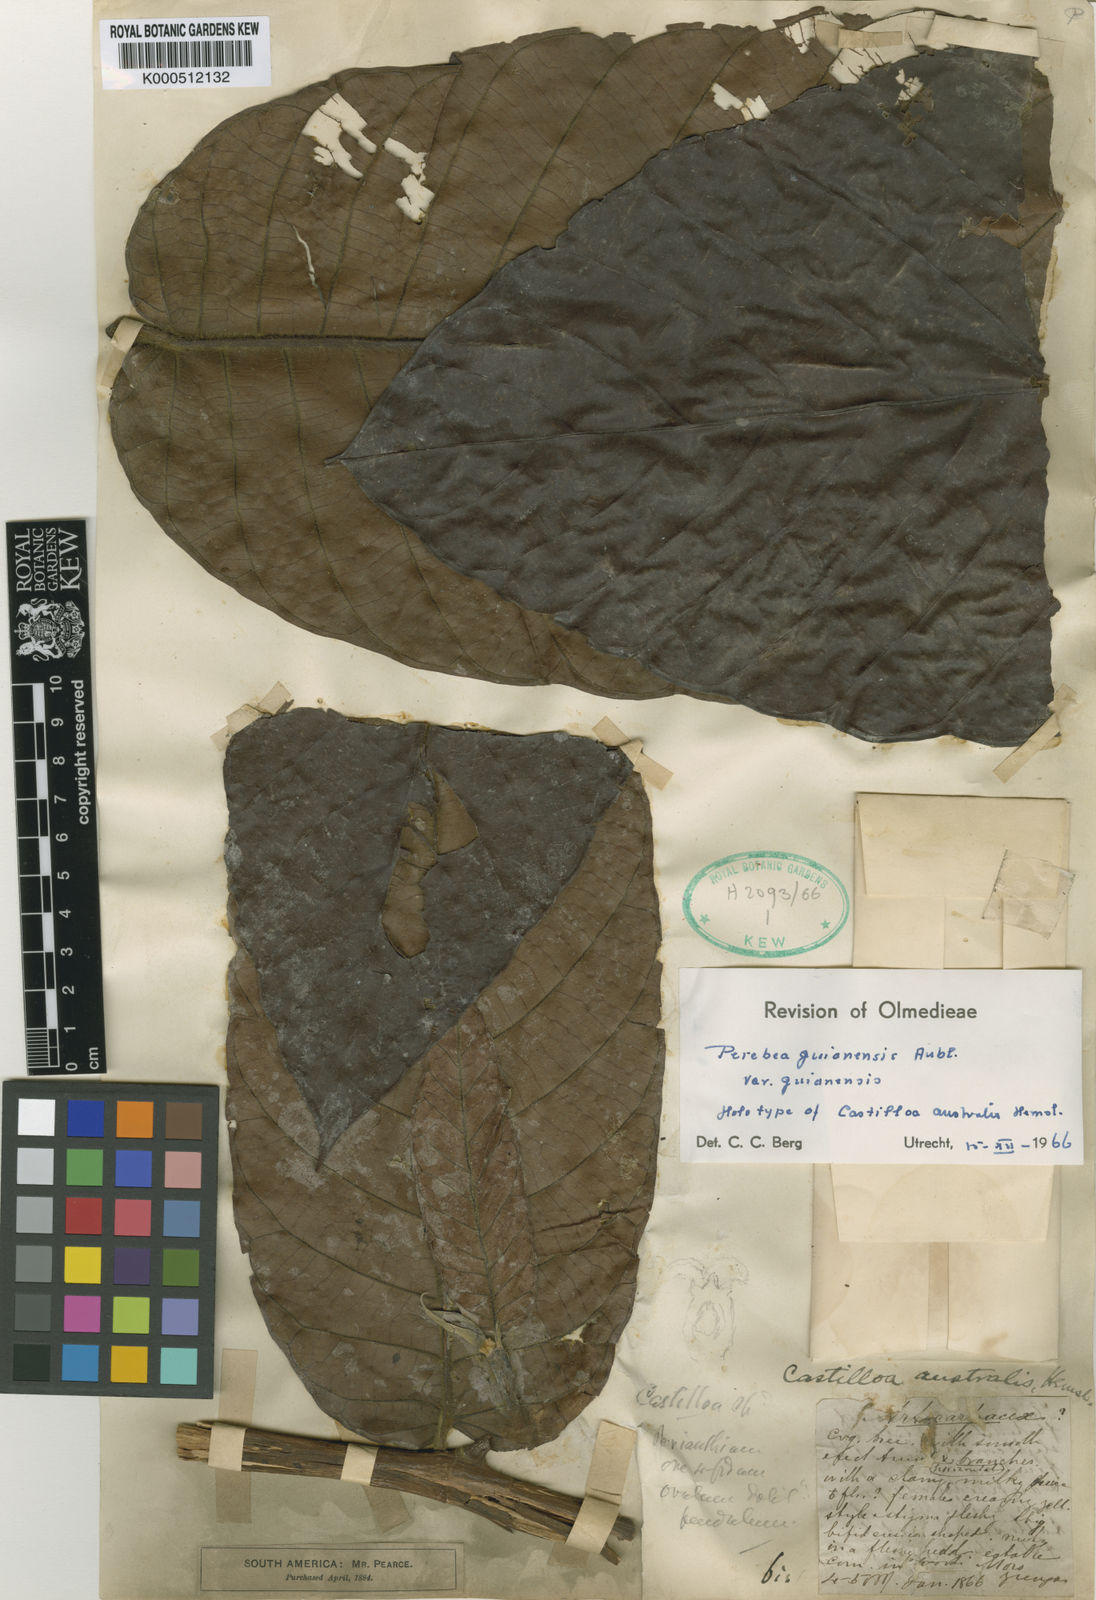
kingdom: Plantae
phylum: Tracheophyta
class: Magnoliopsida
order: Rosales
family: Moraceae
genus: Perebea
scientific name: Perebea guianensis
